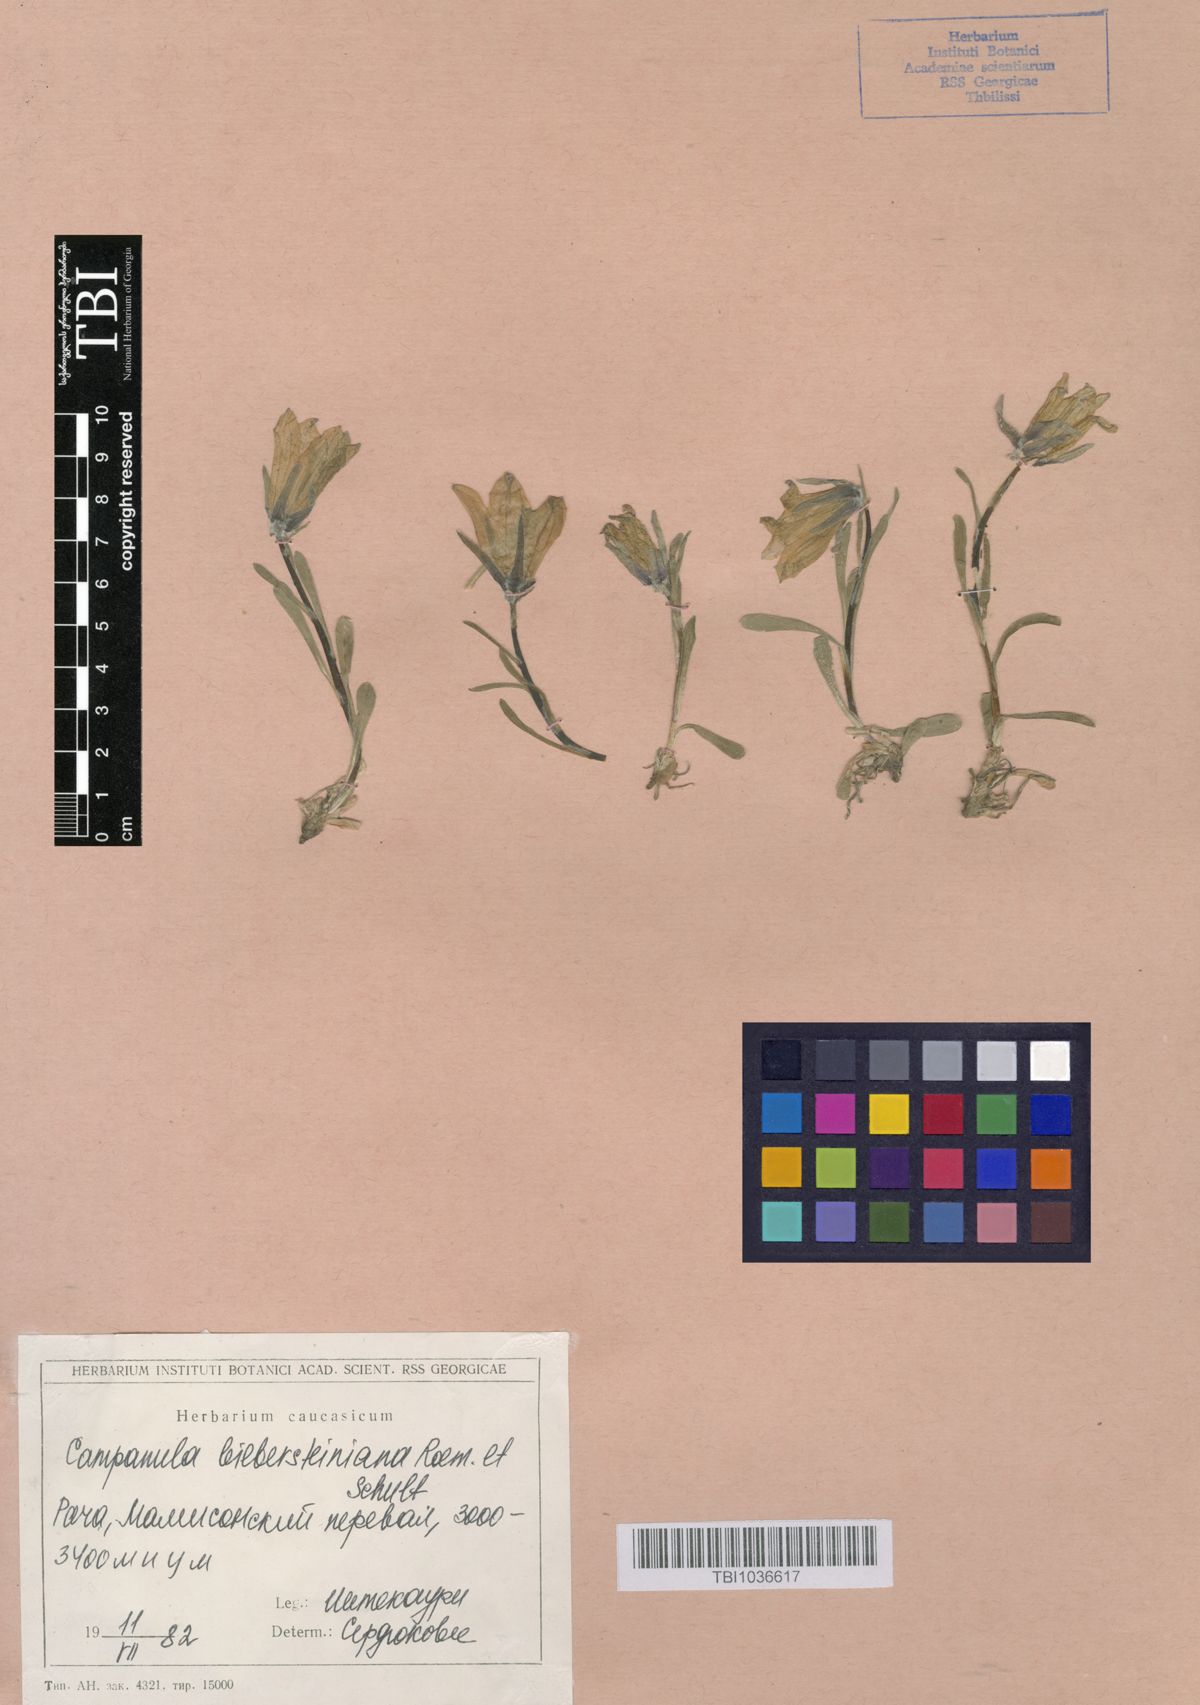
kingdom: Plantae
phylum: Tracheophyta
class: Magnoliopsida
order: Asterales
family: Campanulaceae
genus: Campanula
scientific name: Campanula tridentata
